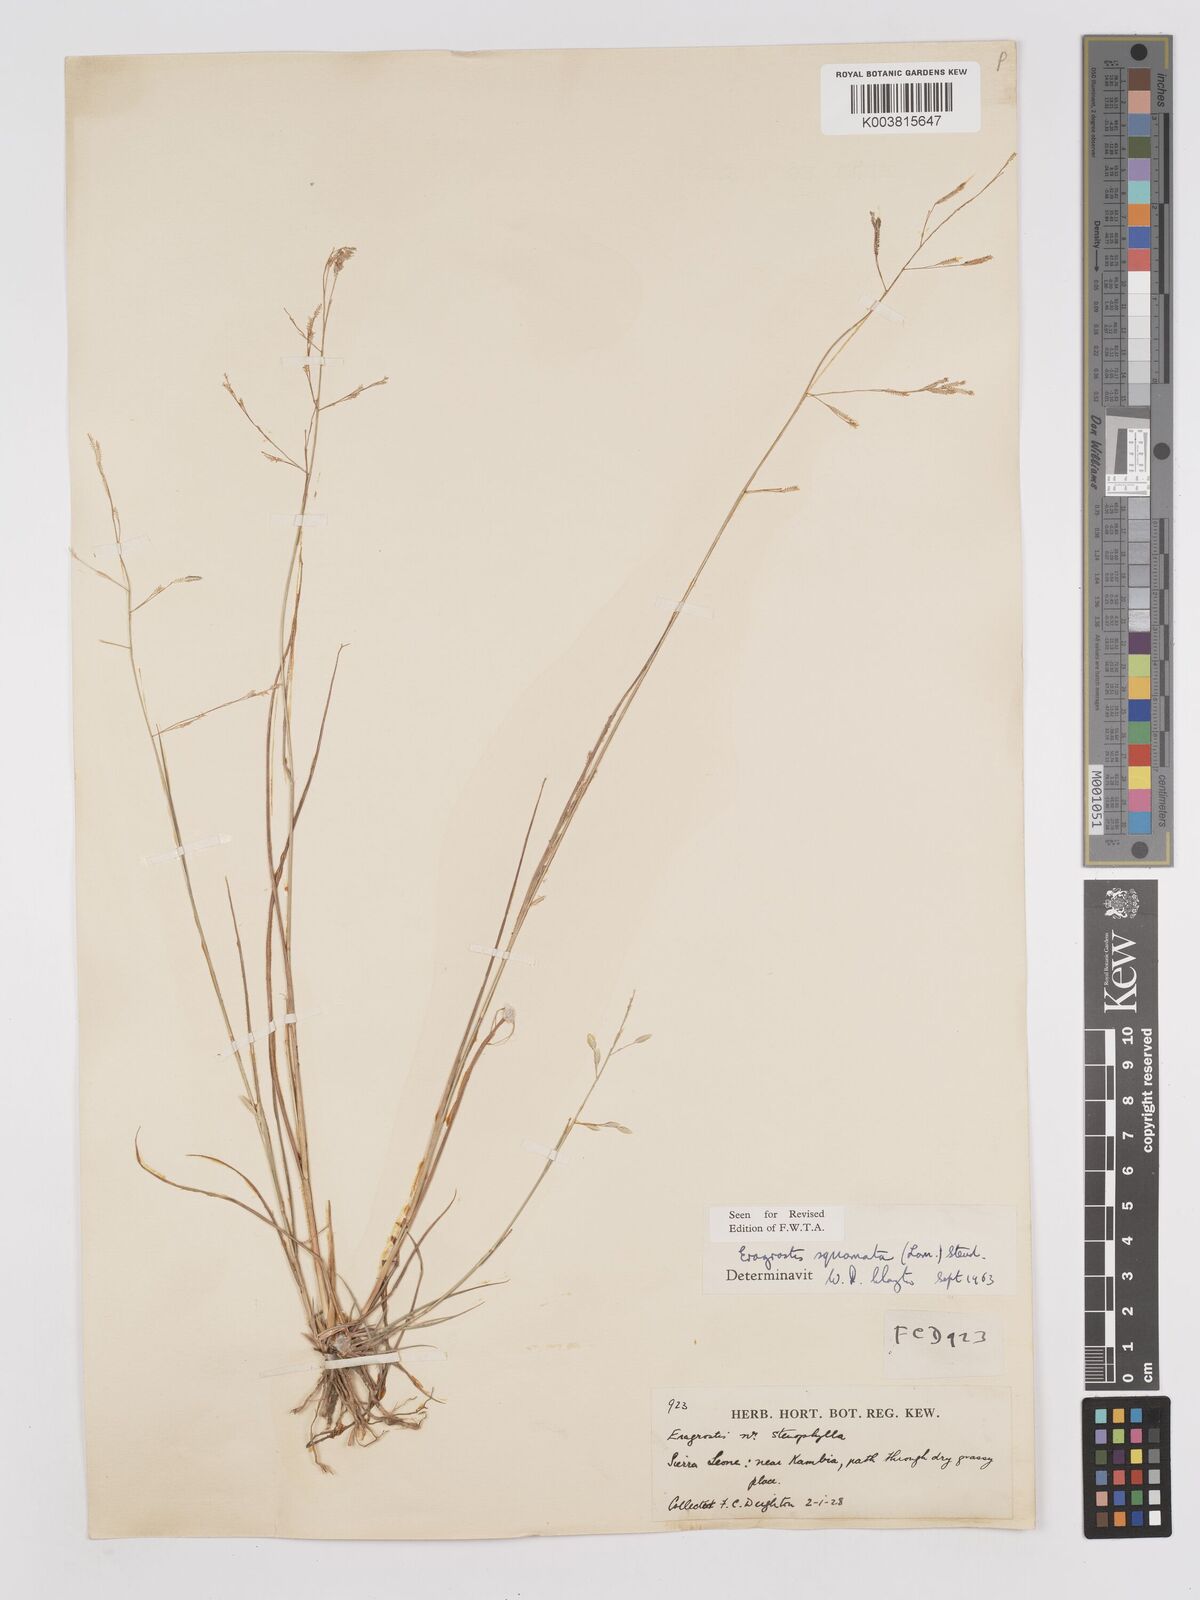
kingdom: Plantae
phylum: Tracheophyta
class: Liliopsida
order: Poales
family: Poaceae
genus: Eragrostis
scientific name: Eragrostis squamata
